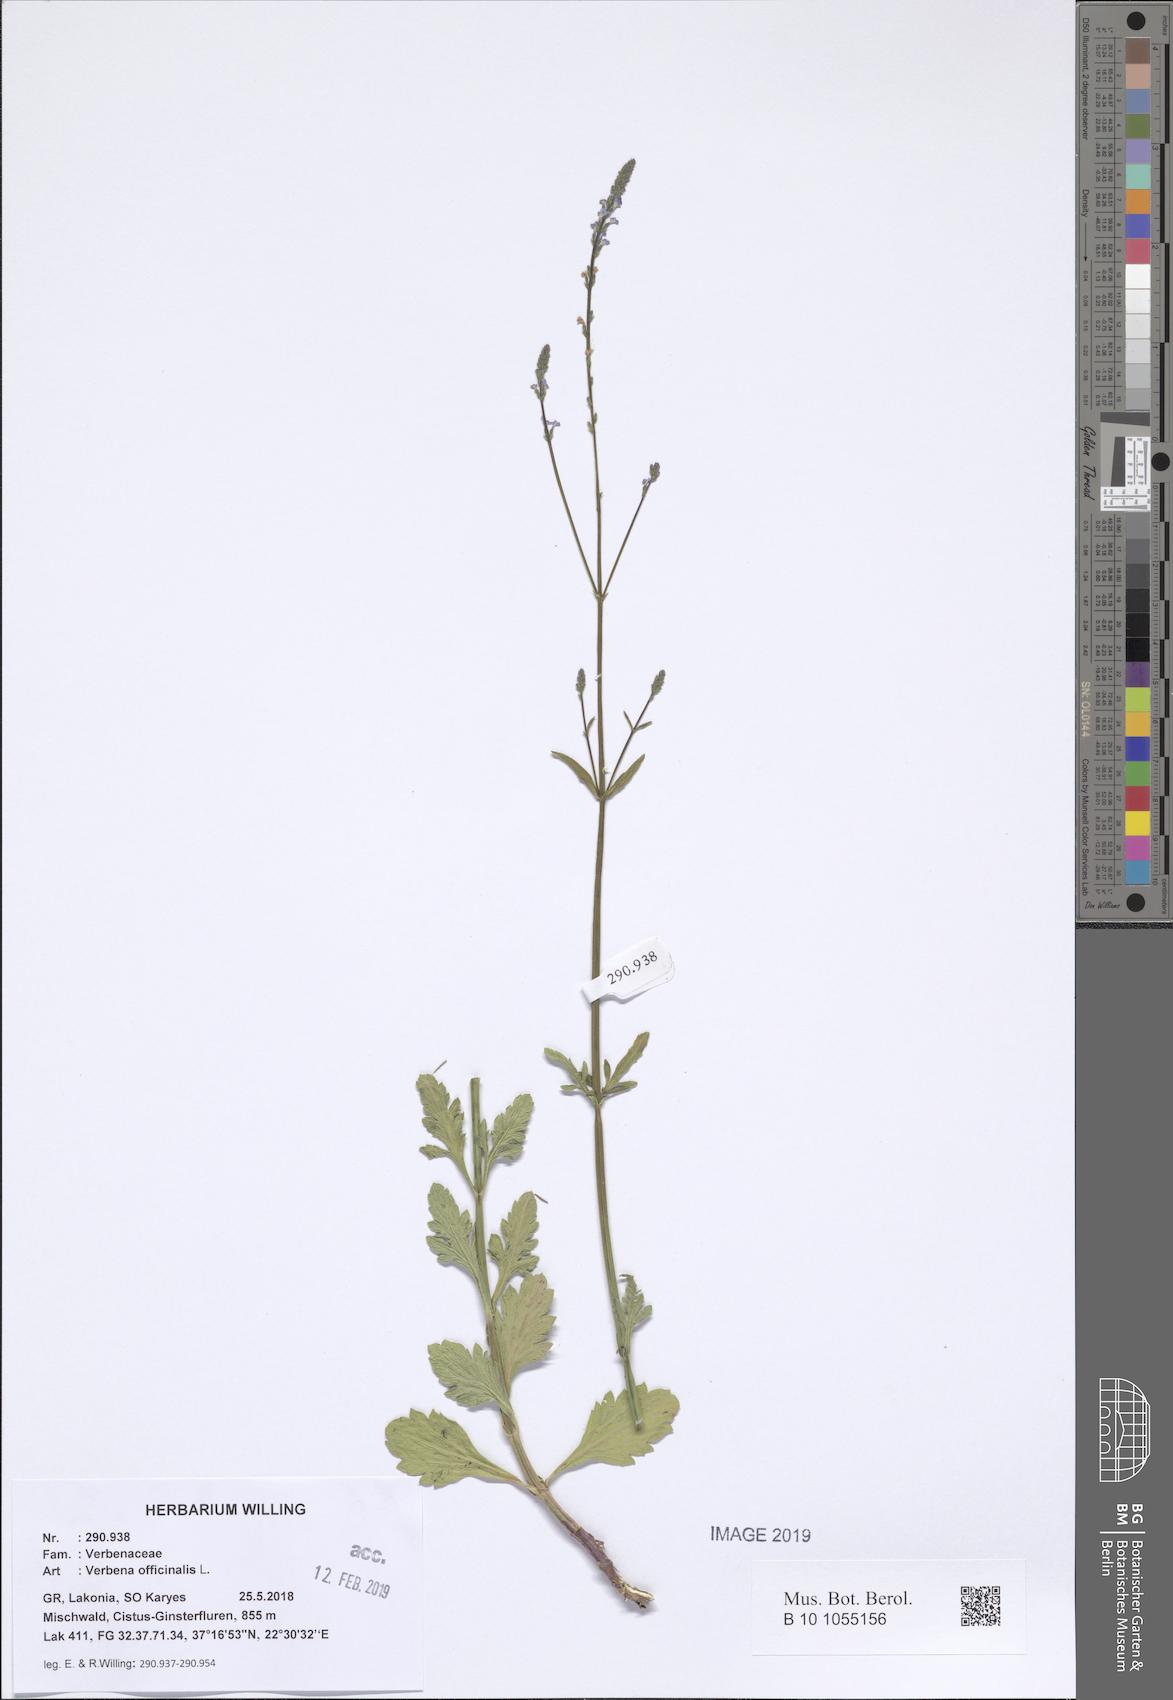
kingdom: Plantae
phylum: Tracheophyta
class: Magnoliopsida
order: Lamiales
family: Verbenaceae
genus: Verbena
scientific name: Verbena officinalis
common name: Vervain
